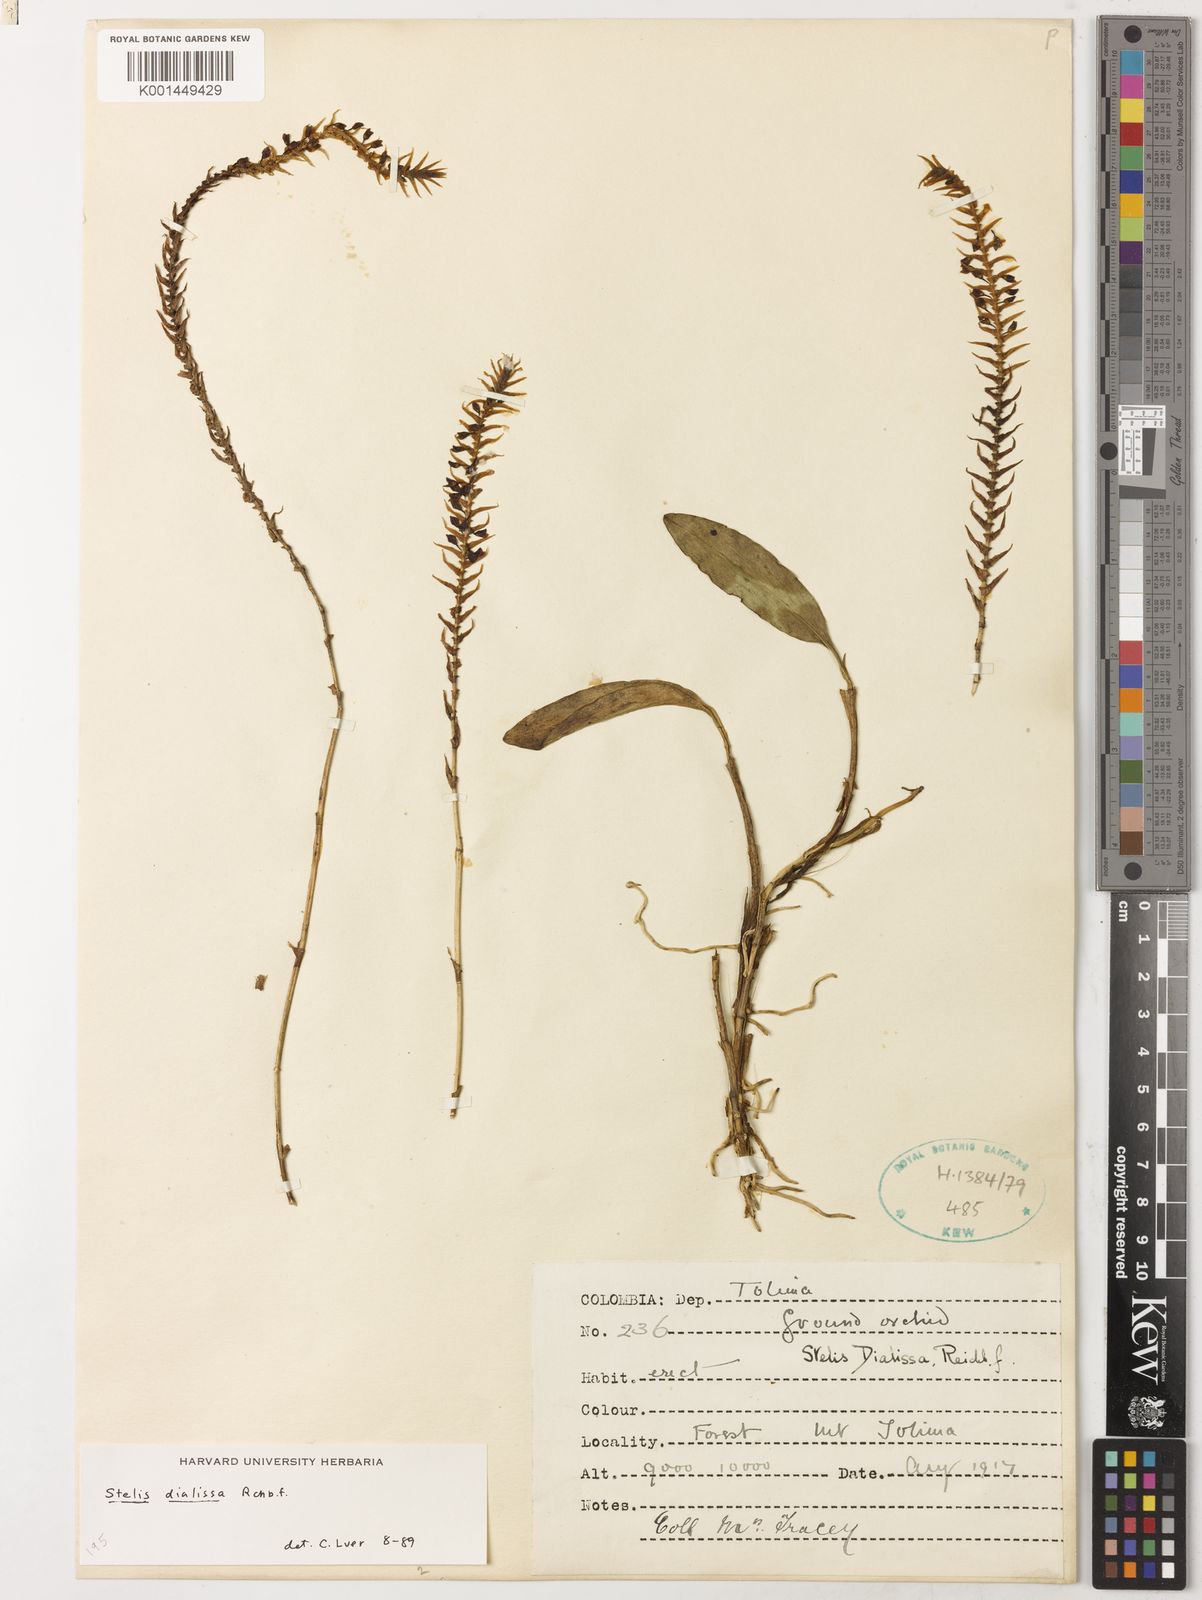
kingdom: Plantae
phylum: Tracheophyta
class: Liliopsida
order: Asparagales
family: Orchidaceae
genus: Stelis
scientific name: Stelis dialissa
